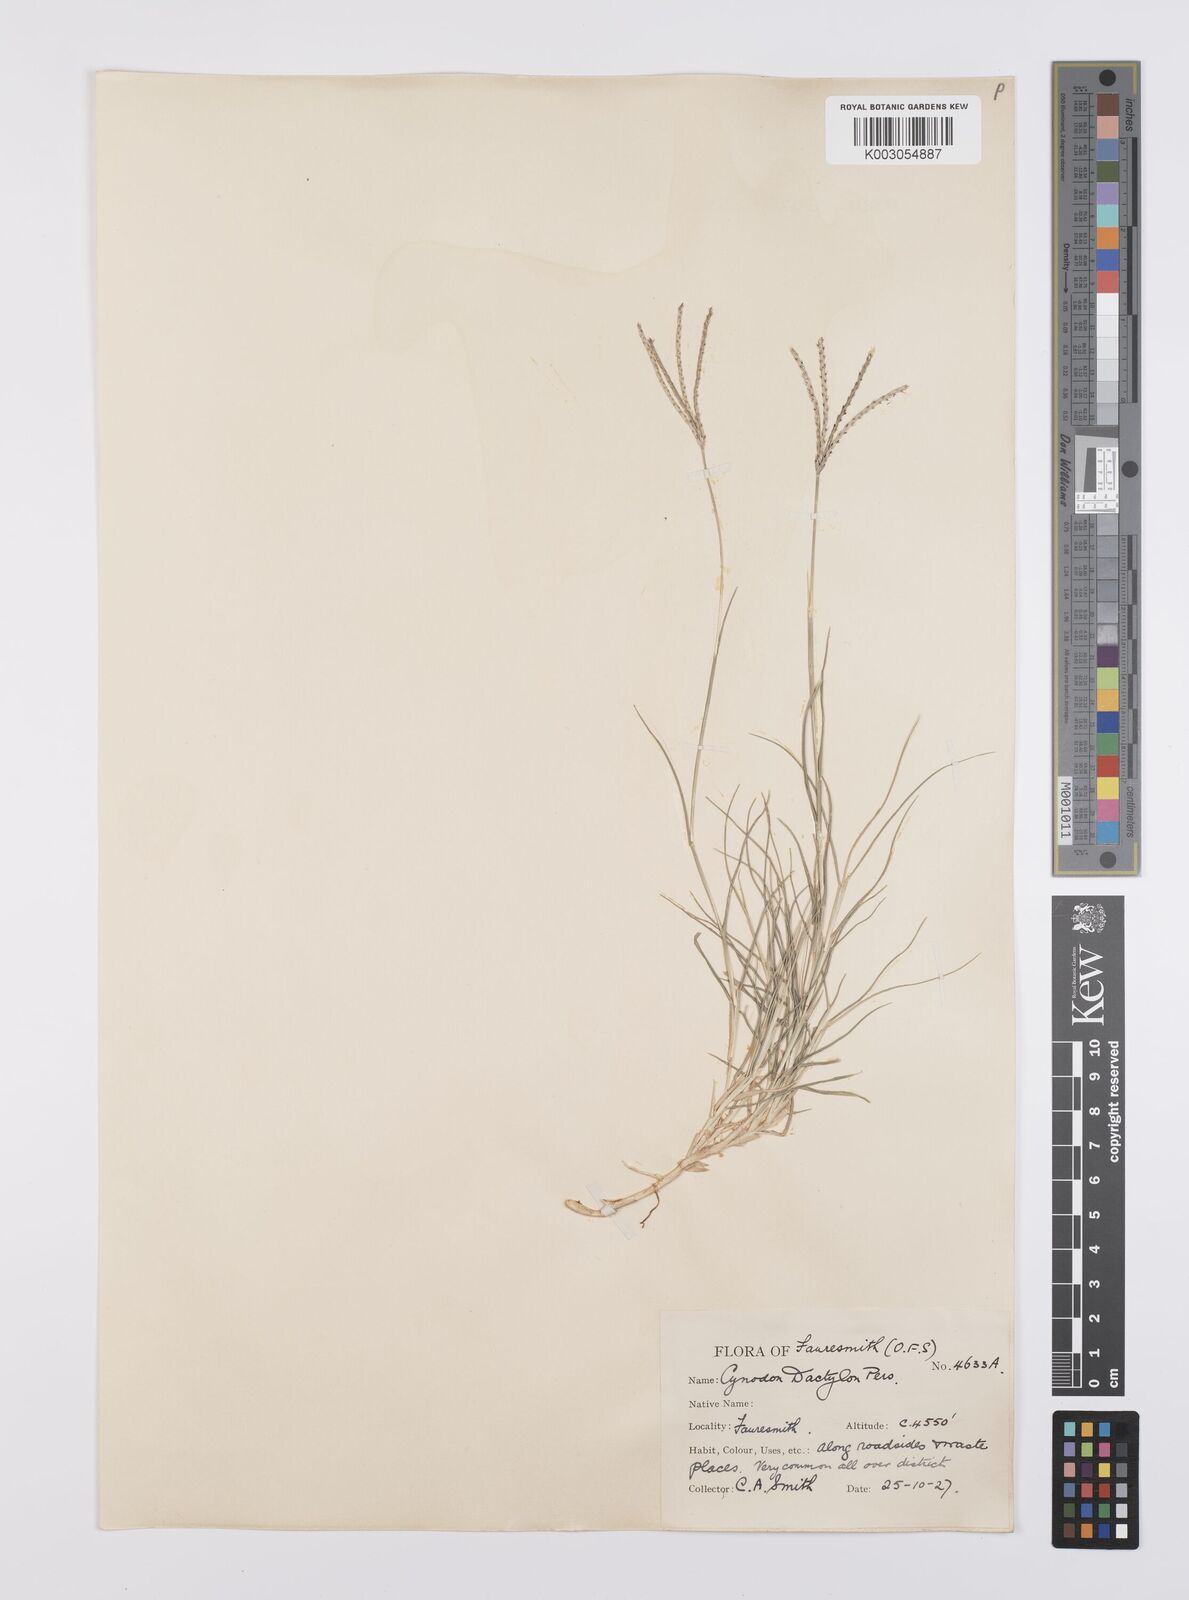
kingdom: Plantae
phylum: Tracheophyta
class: Liliopsida
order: Poales
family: Poaceae
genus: Cynodon
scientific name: Cynodon dactylon
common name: Bermuda grass
